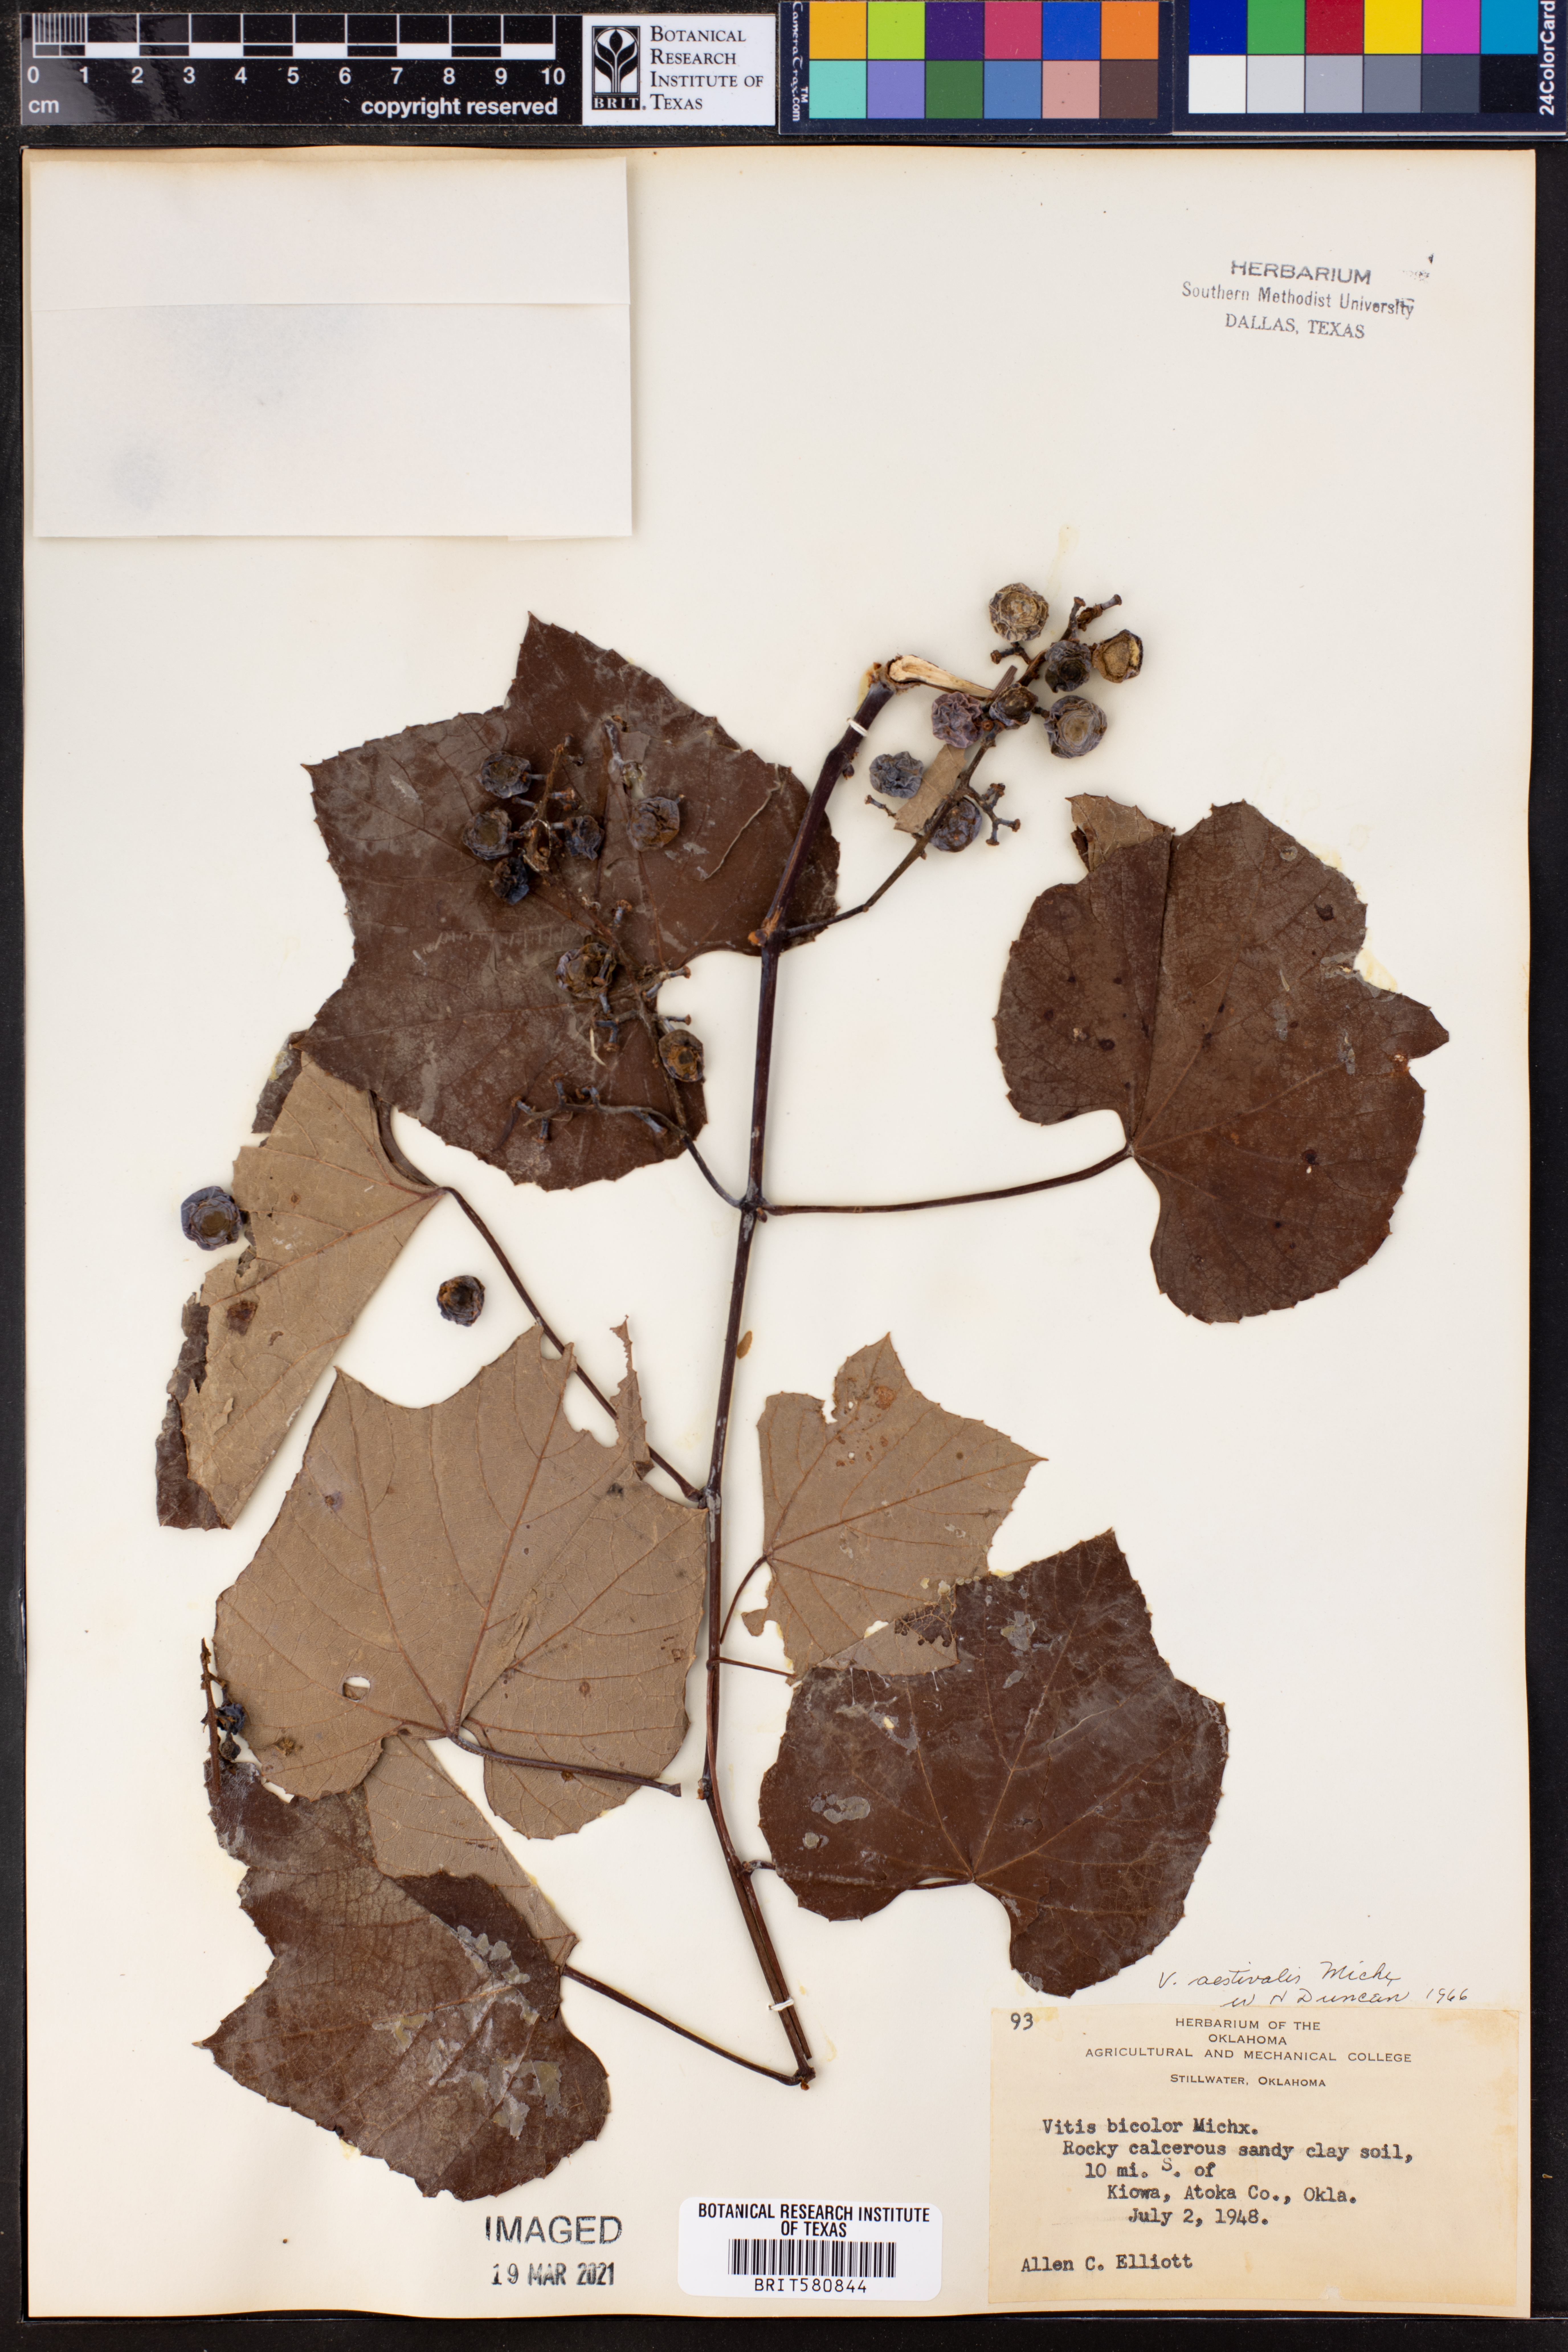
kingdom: Plantae
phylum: Tracheophyta
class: Magnoliopsida
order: Vitales
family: Vitaceae
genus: Vitis
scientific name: Vitis aestivalis
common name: Pigeon grape
